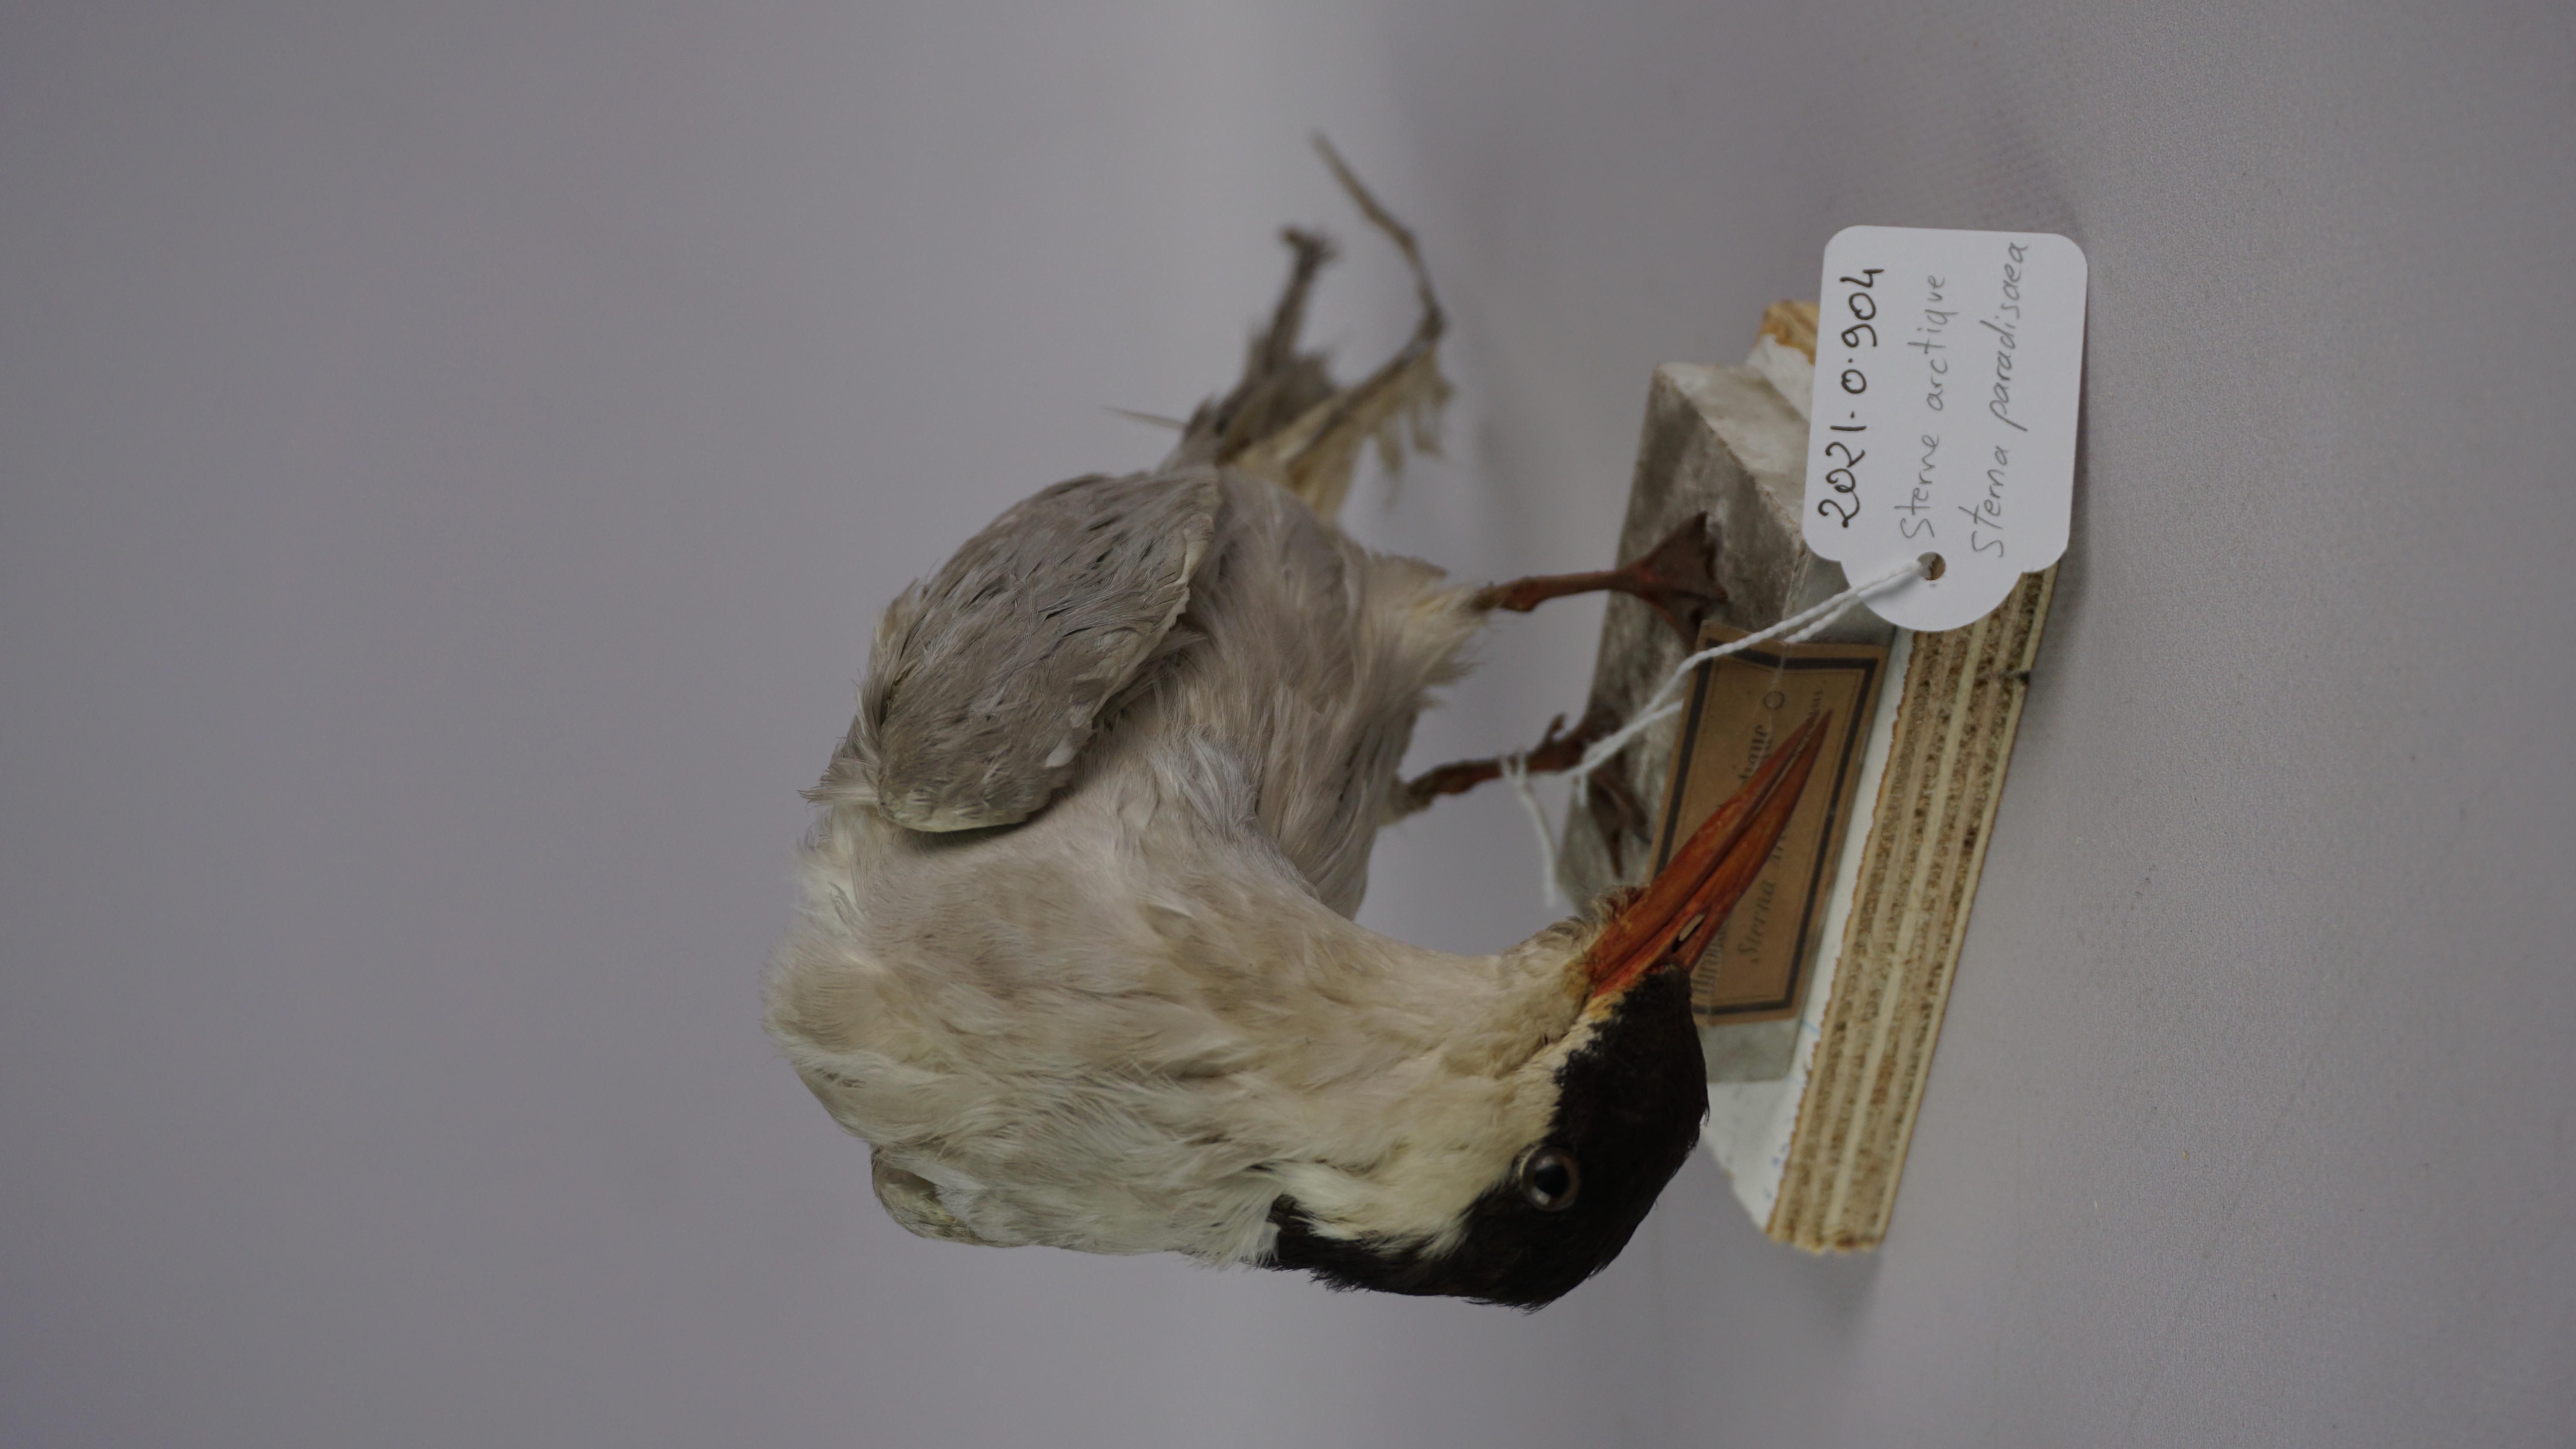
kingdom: Animalia
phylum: Chordata
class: Aves
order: Charadriiformes
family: Laridae
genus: Sterna
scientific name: Sterna paradisaea
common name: Arctic tern
